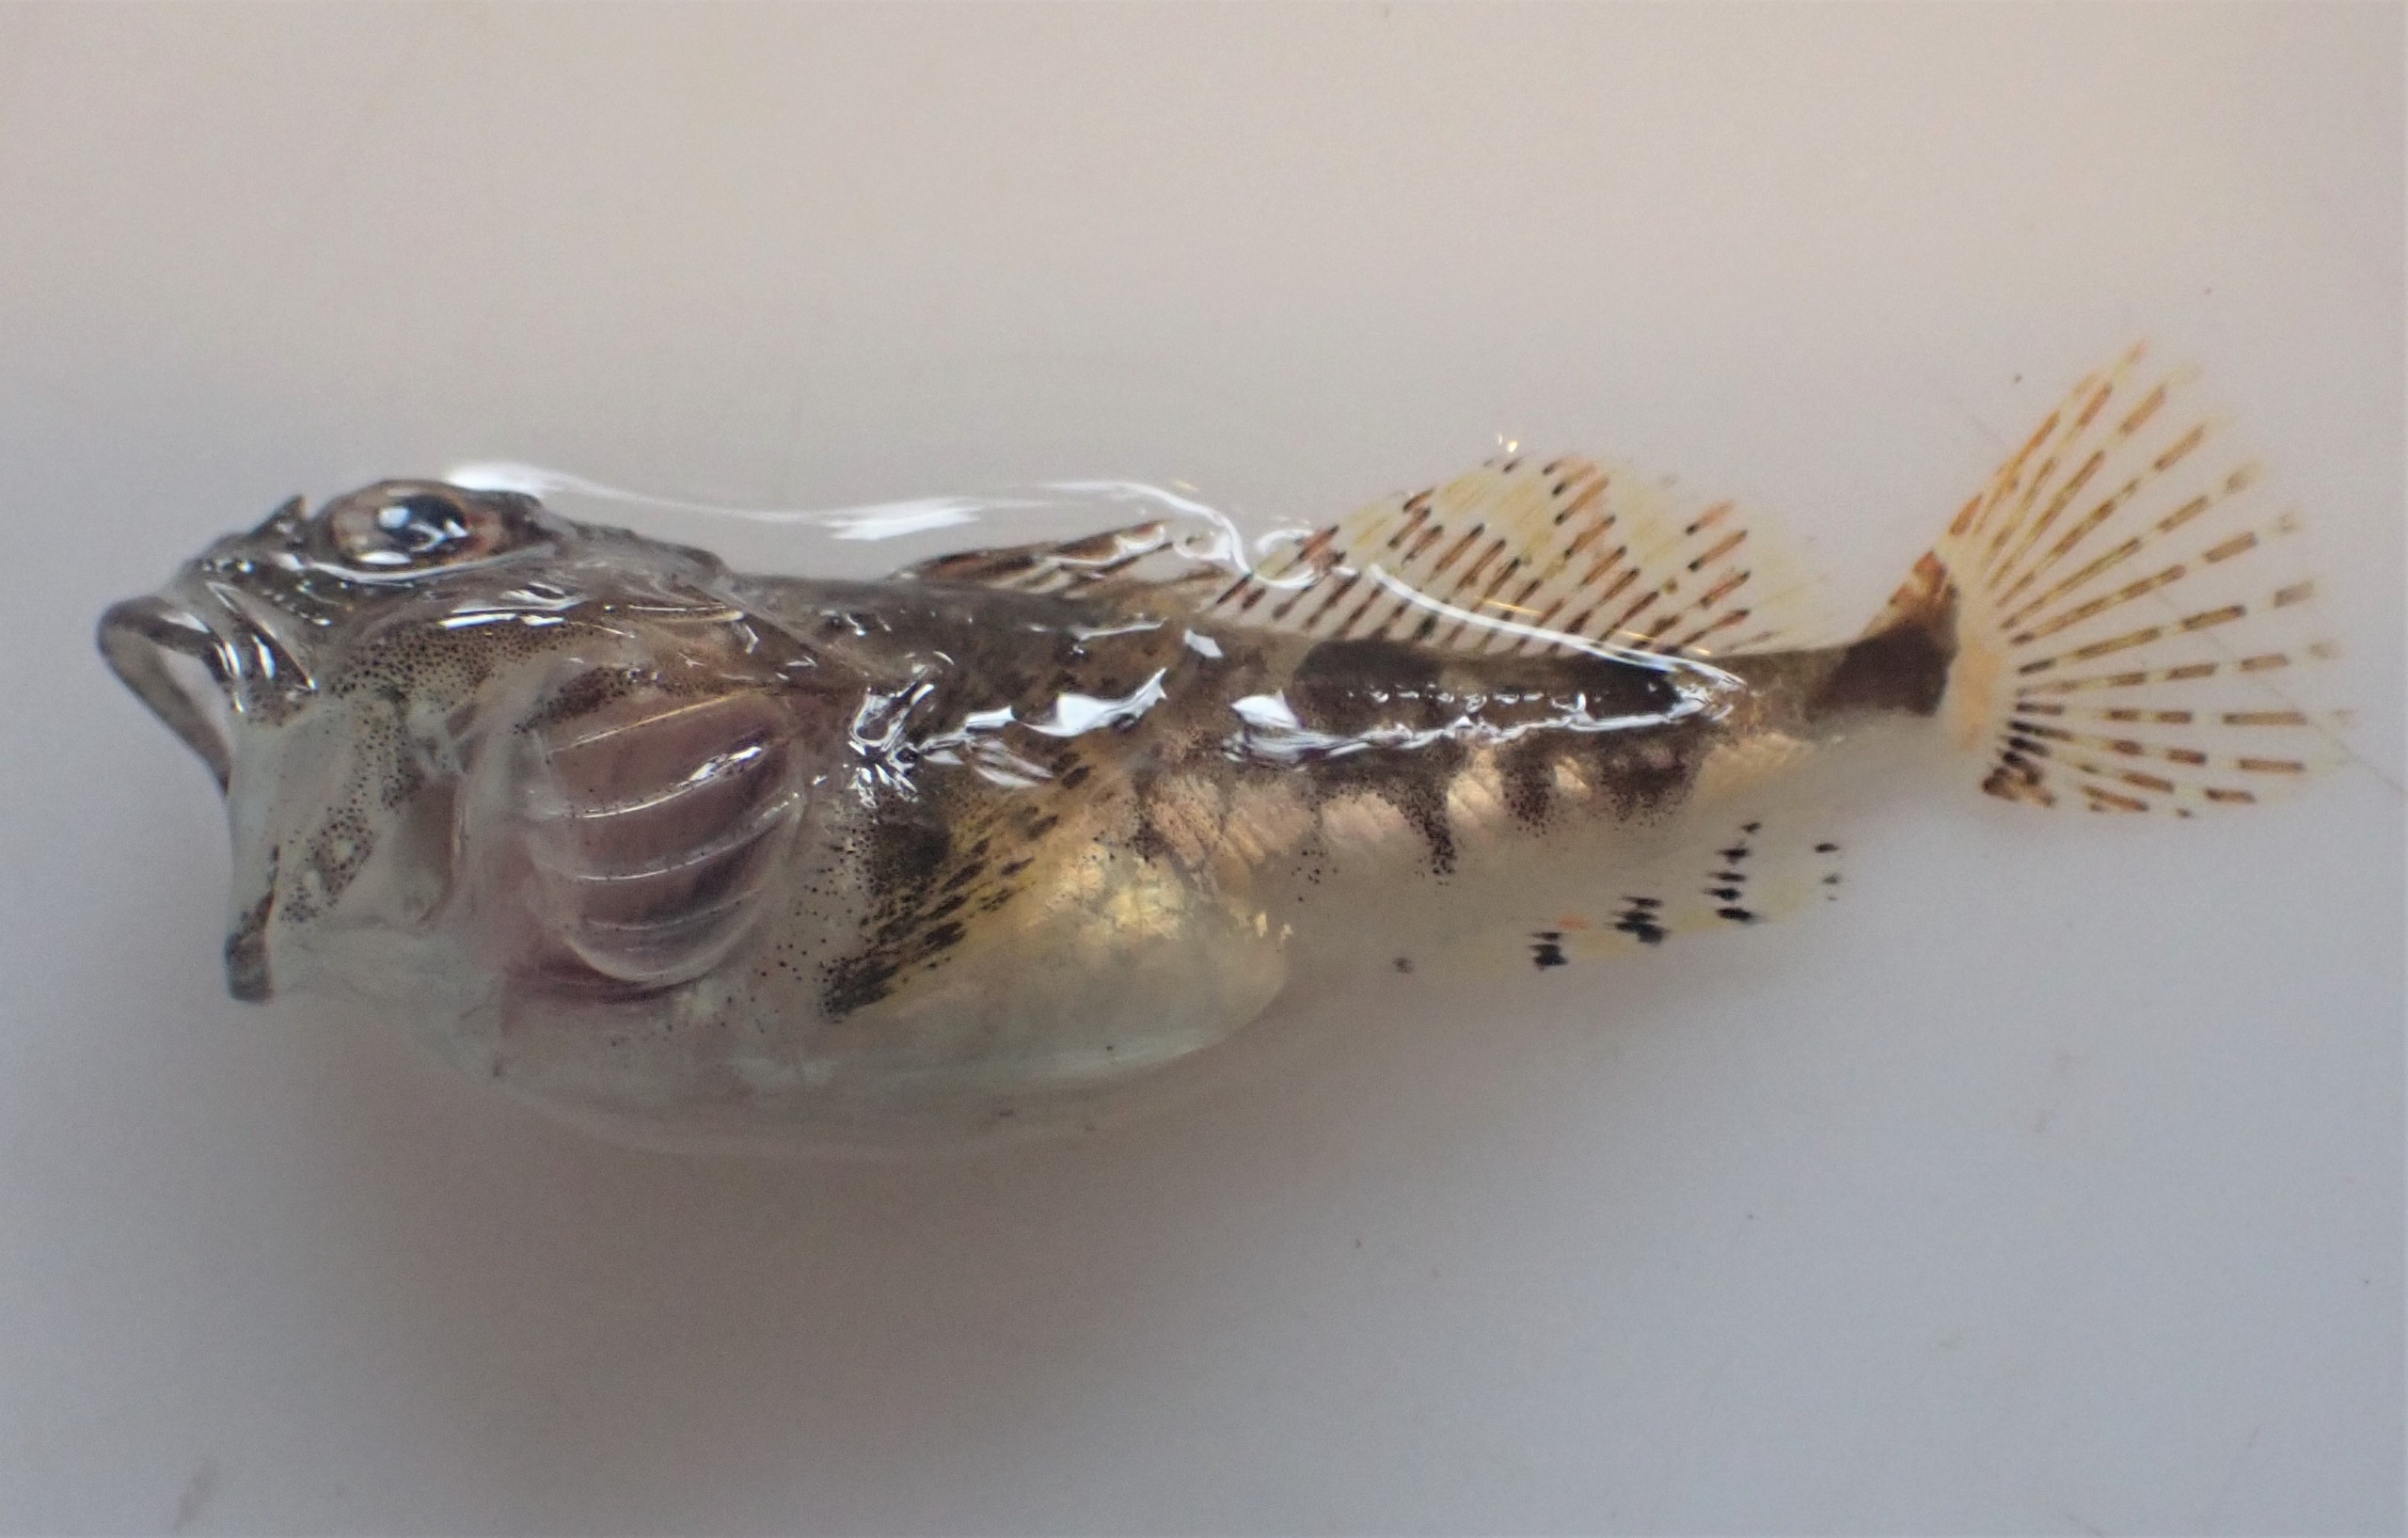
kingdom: Animalia
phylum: Chordata
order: Scorpaeniformes
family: Cottidae
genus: Myoxocephalus
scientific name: Myoxocephalus scorpius
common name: Almindelig ulk
